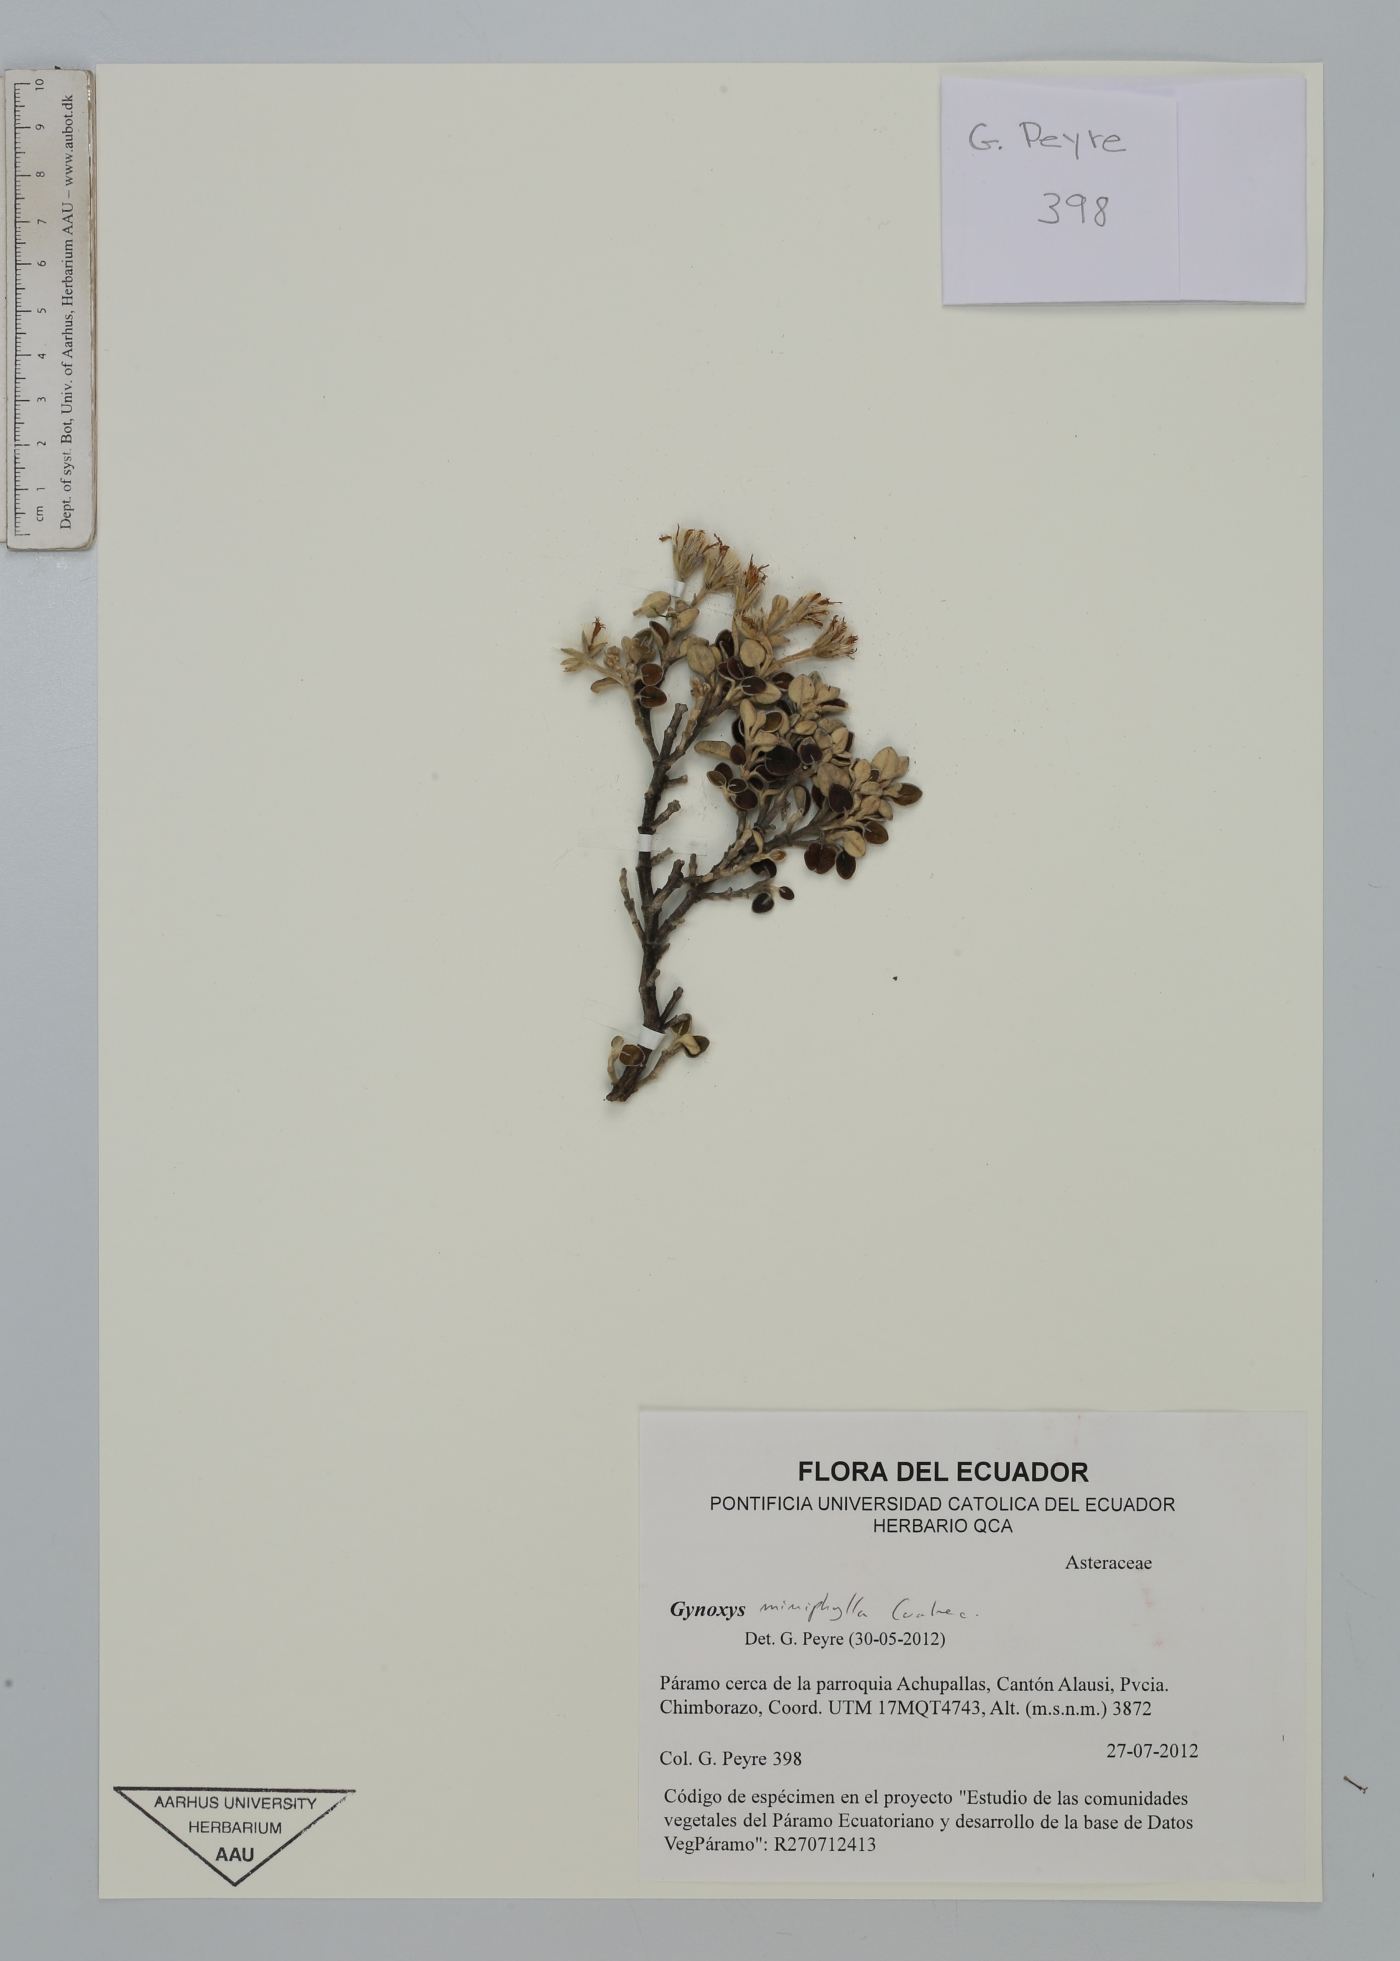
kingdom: Plantae
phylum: Tracheophyta
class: Magnoliopsida
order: Asterales
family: Asteraceae
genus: Gynoxys
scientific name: Gynoxys miniphylla
